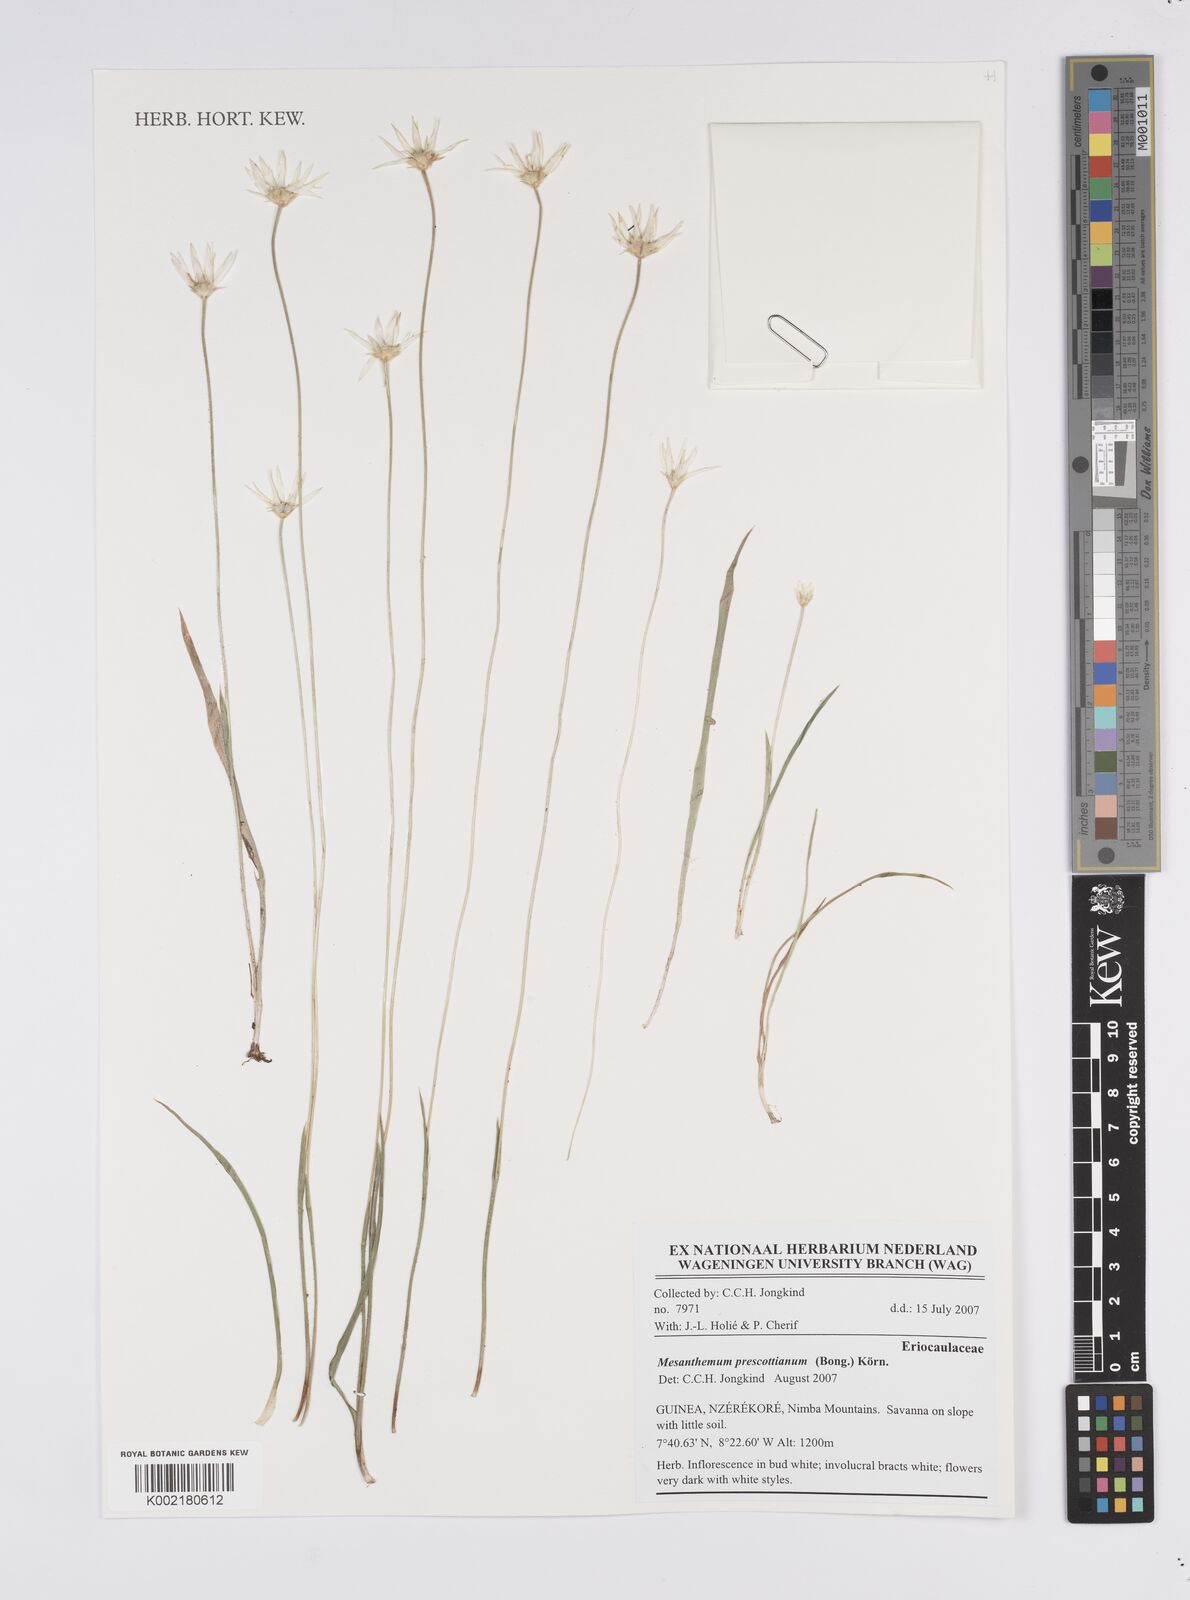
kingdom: Plantae
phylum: Tracheophyta
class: Liliopsida
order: Poales
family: Eriocaulaceae
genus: Mesanthemum
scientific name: Mesanthemum prescottianum
